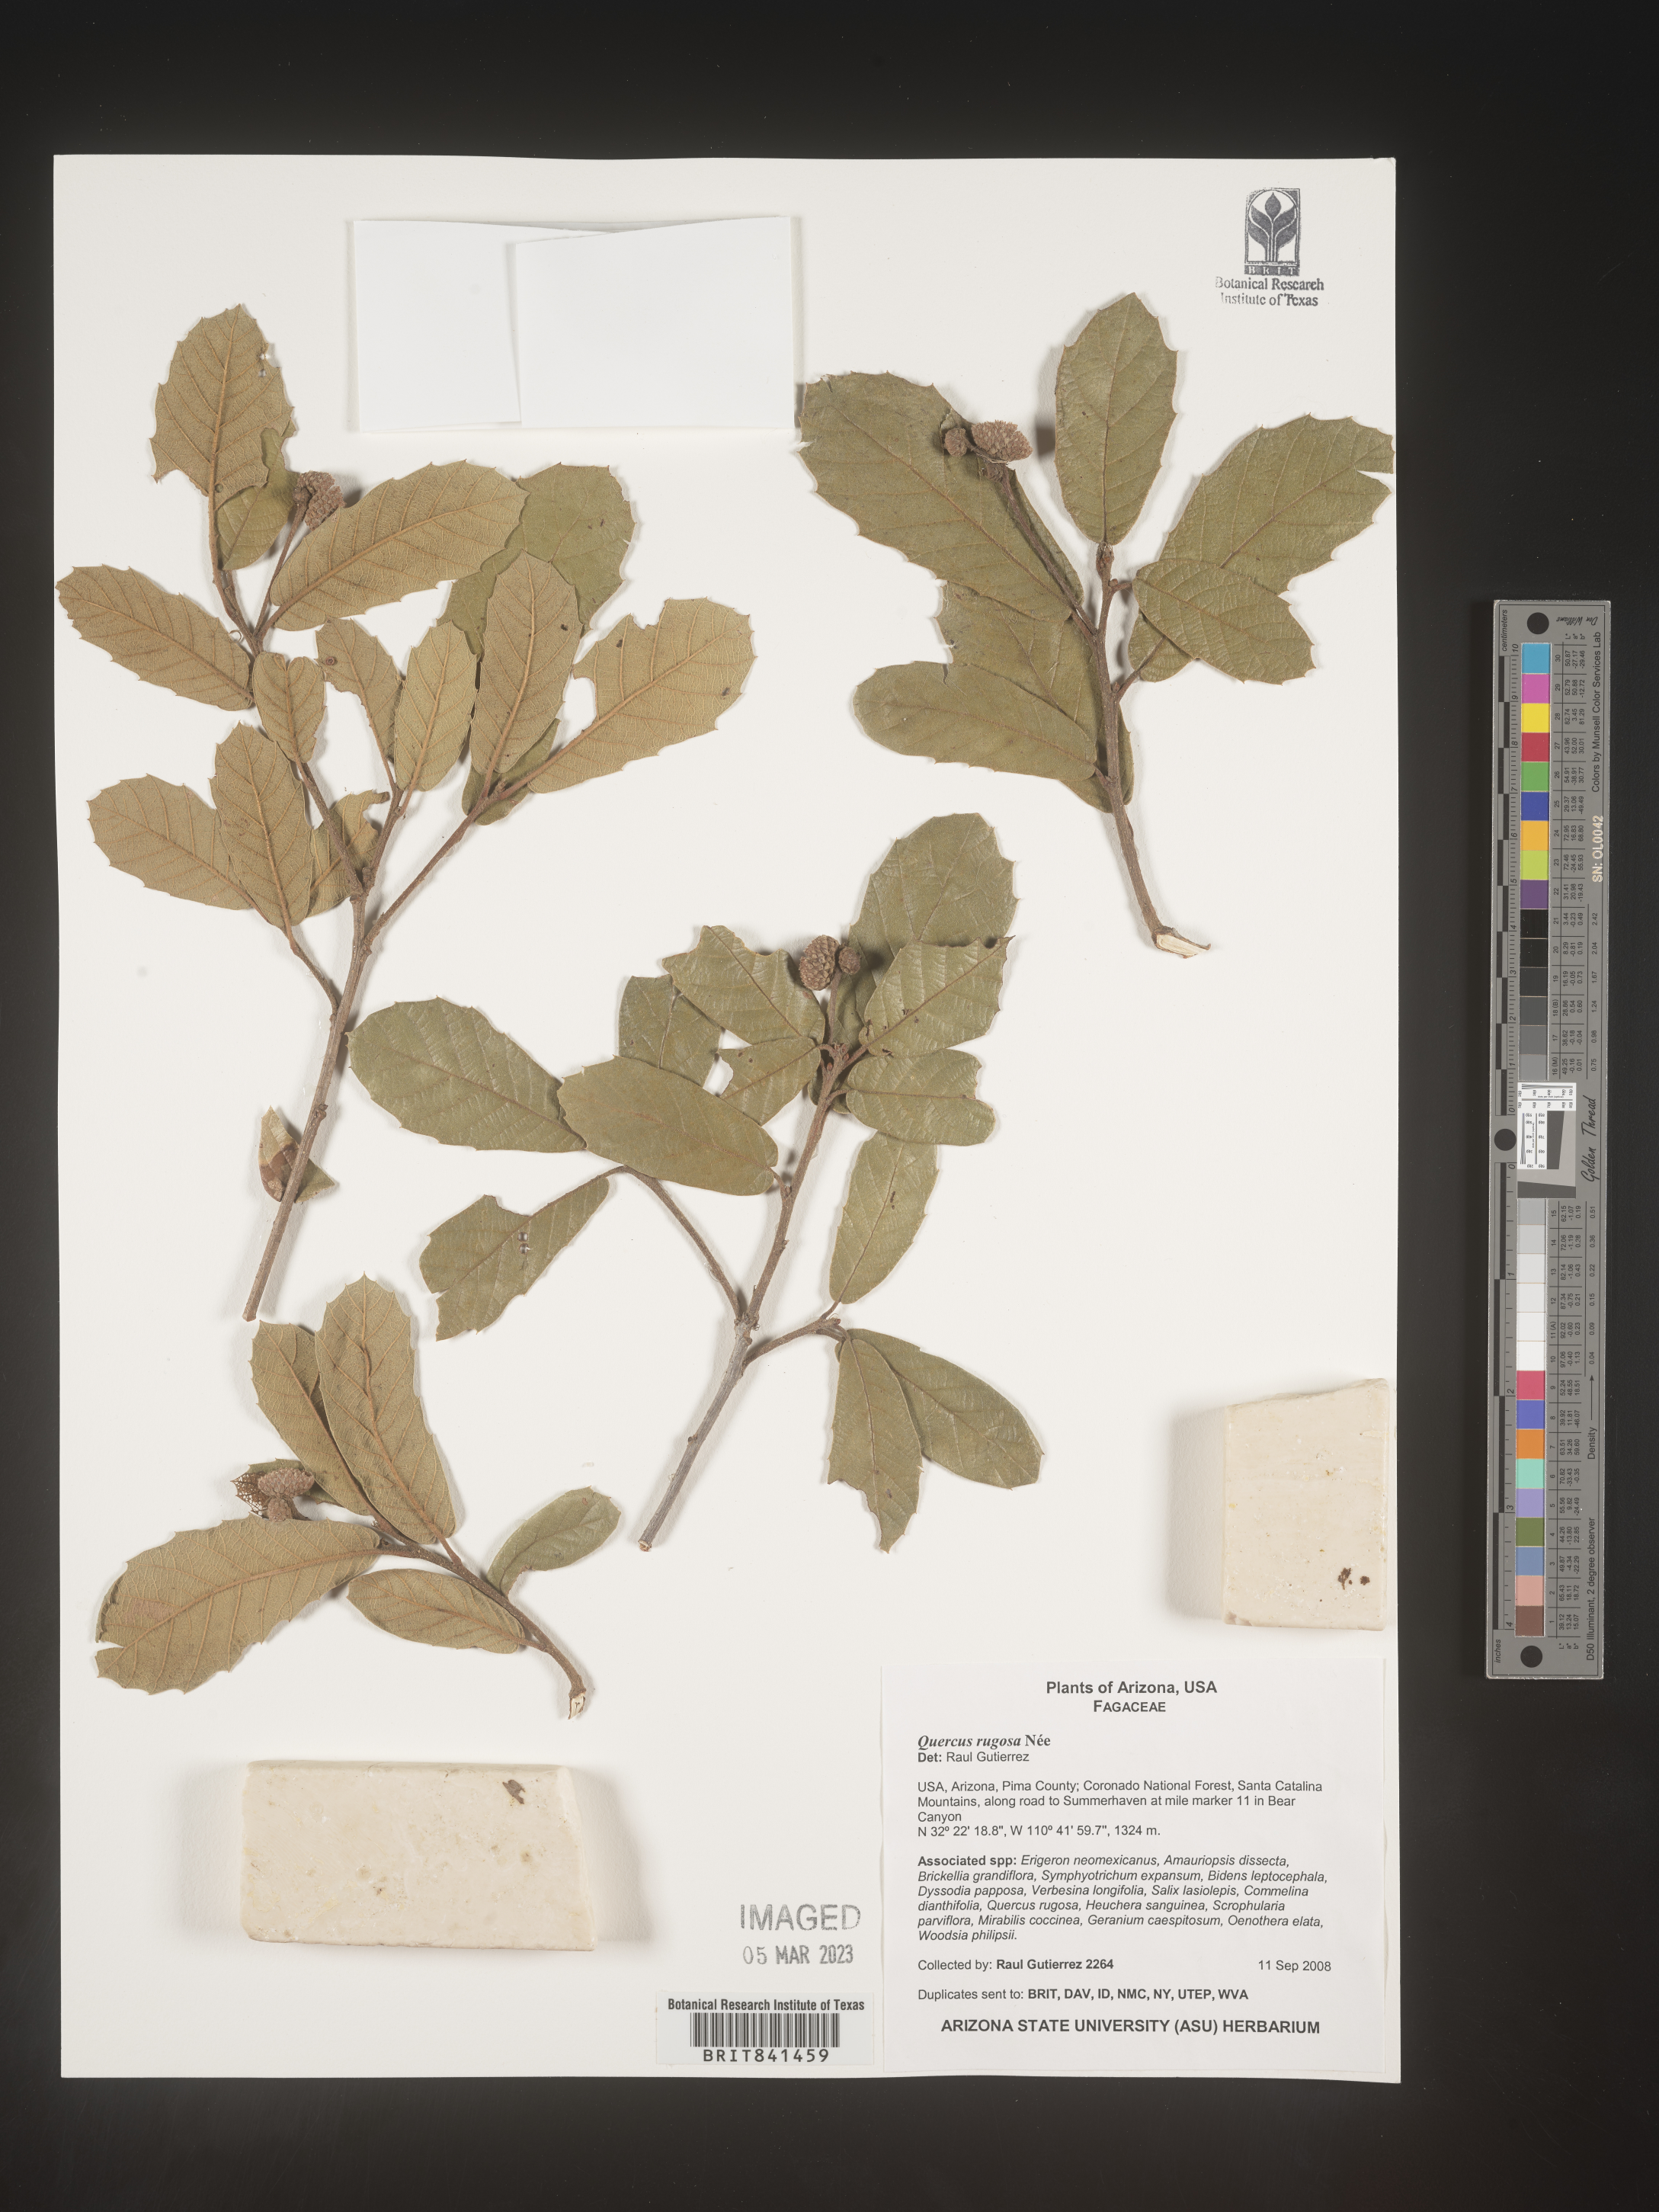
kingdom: Plantae
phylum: Tracheophyta
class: Magnoliopsida
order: Fagales
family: Fagaceae
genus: Quercus
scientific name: Quercus rugosa
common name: Netleaf oak
